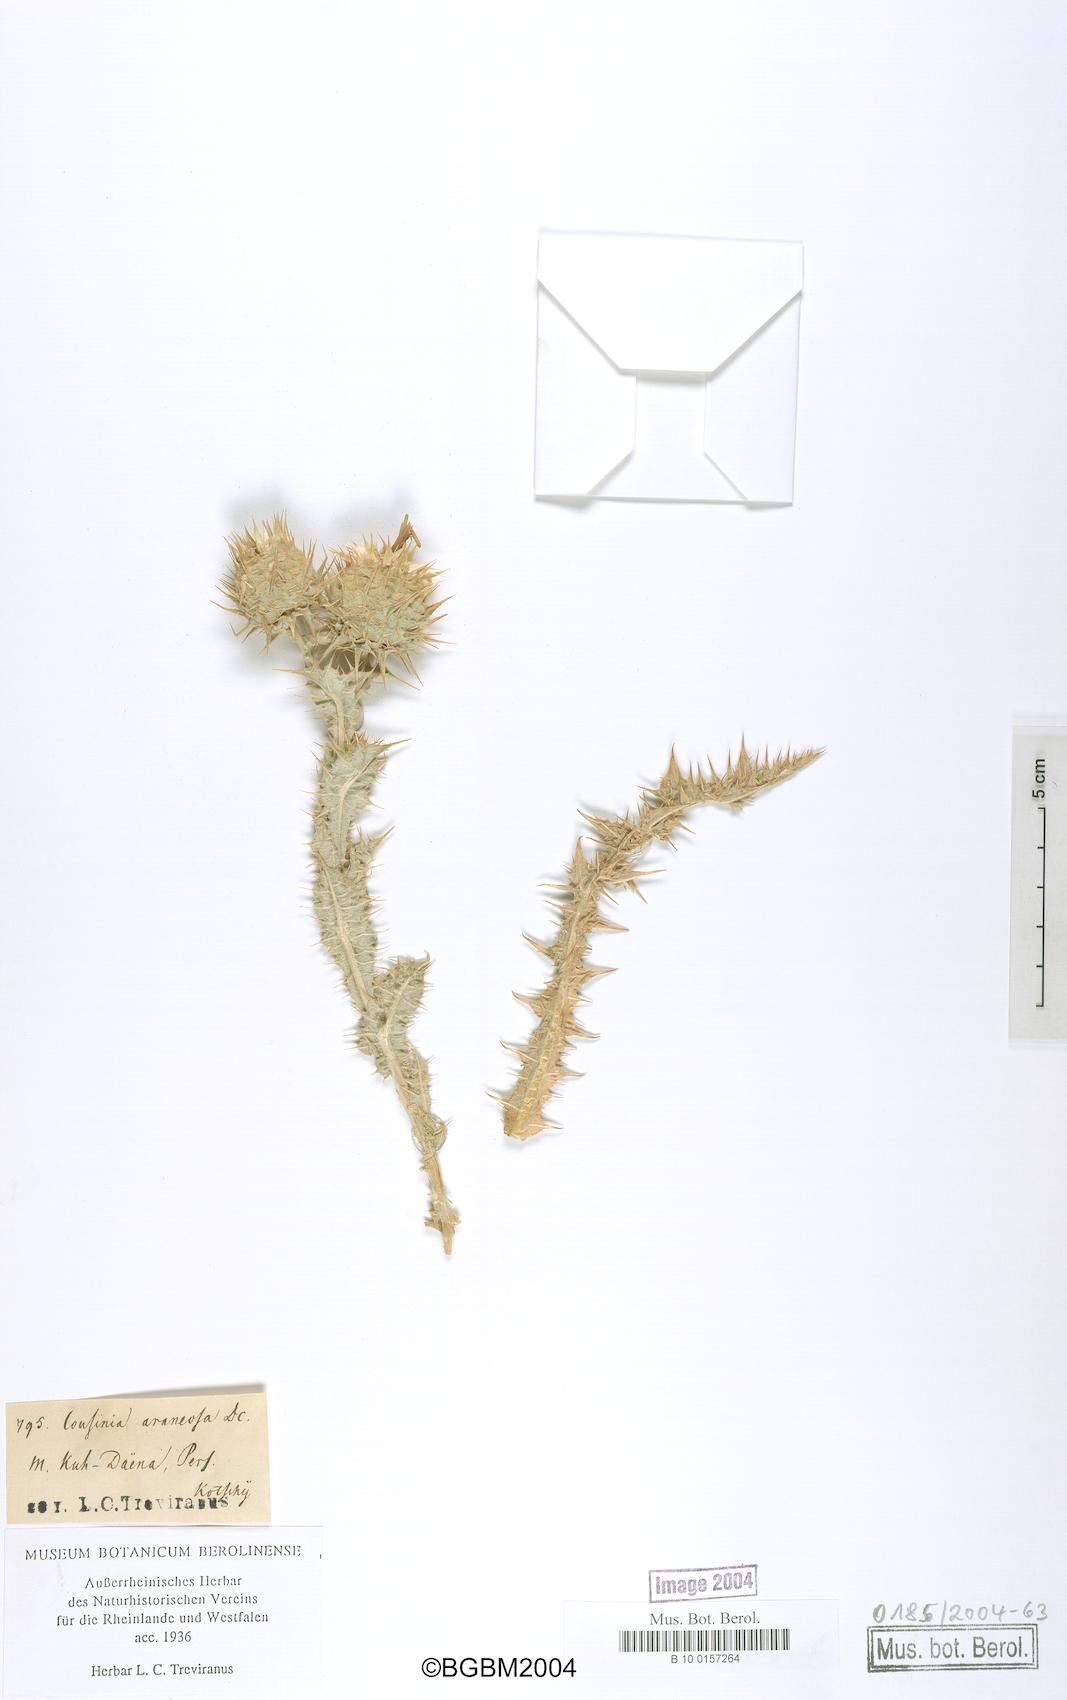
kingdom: Plantae
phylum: Tracheophyta
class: Magnoliopsida
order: Asterales
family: Asteraceae
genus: Cousinia
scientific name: Cousinia araneosa
